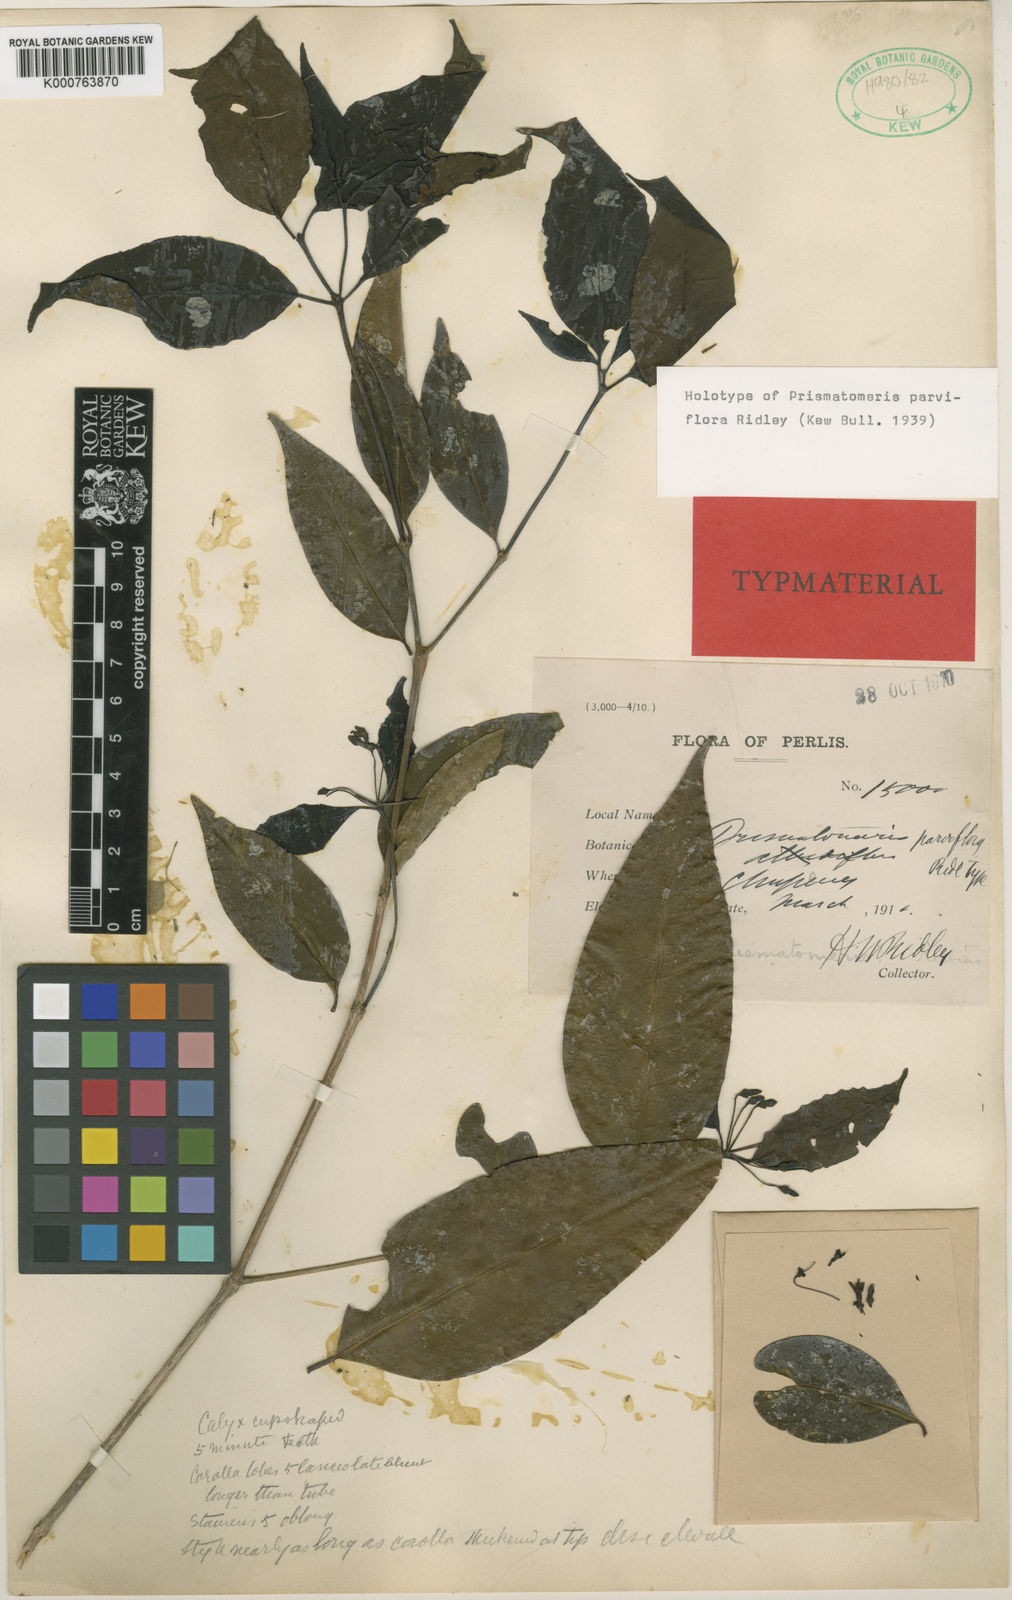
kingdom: Plantae
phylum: Tracheophyta
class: Magnoliopsida
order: Gentianales
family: Rubiaceae
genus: Prismatomeris
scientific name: Prismatomeris tetrandra
